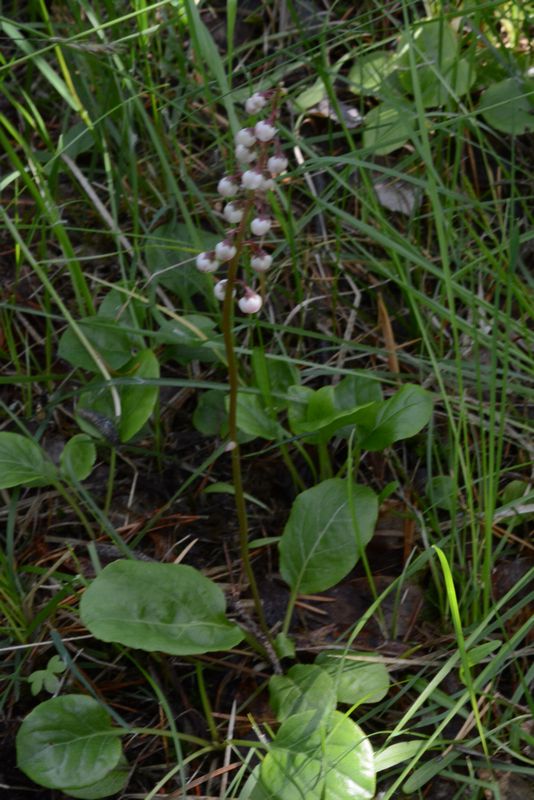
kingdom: Plantae
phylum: Tracheophyta
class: Magnoliopsida
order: Ericales
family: Ericaceae
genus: Pyrola
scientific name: Pyrola minor
